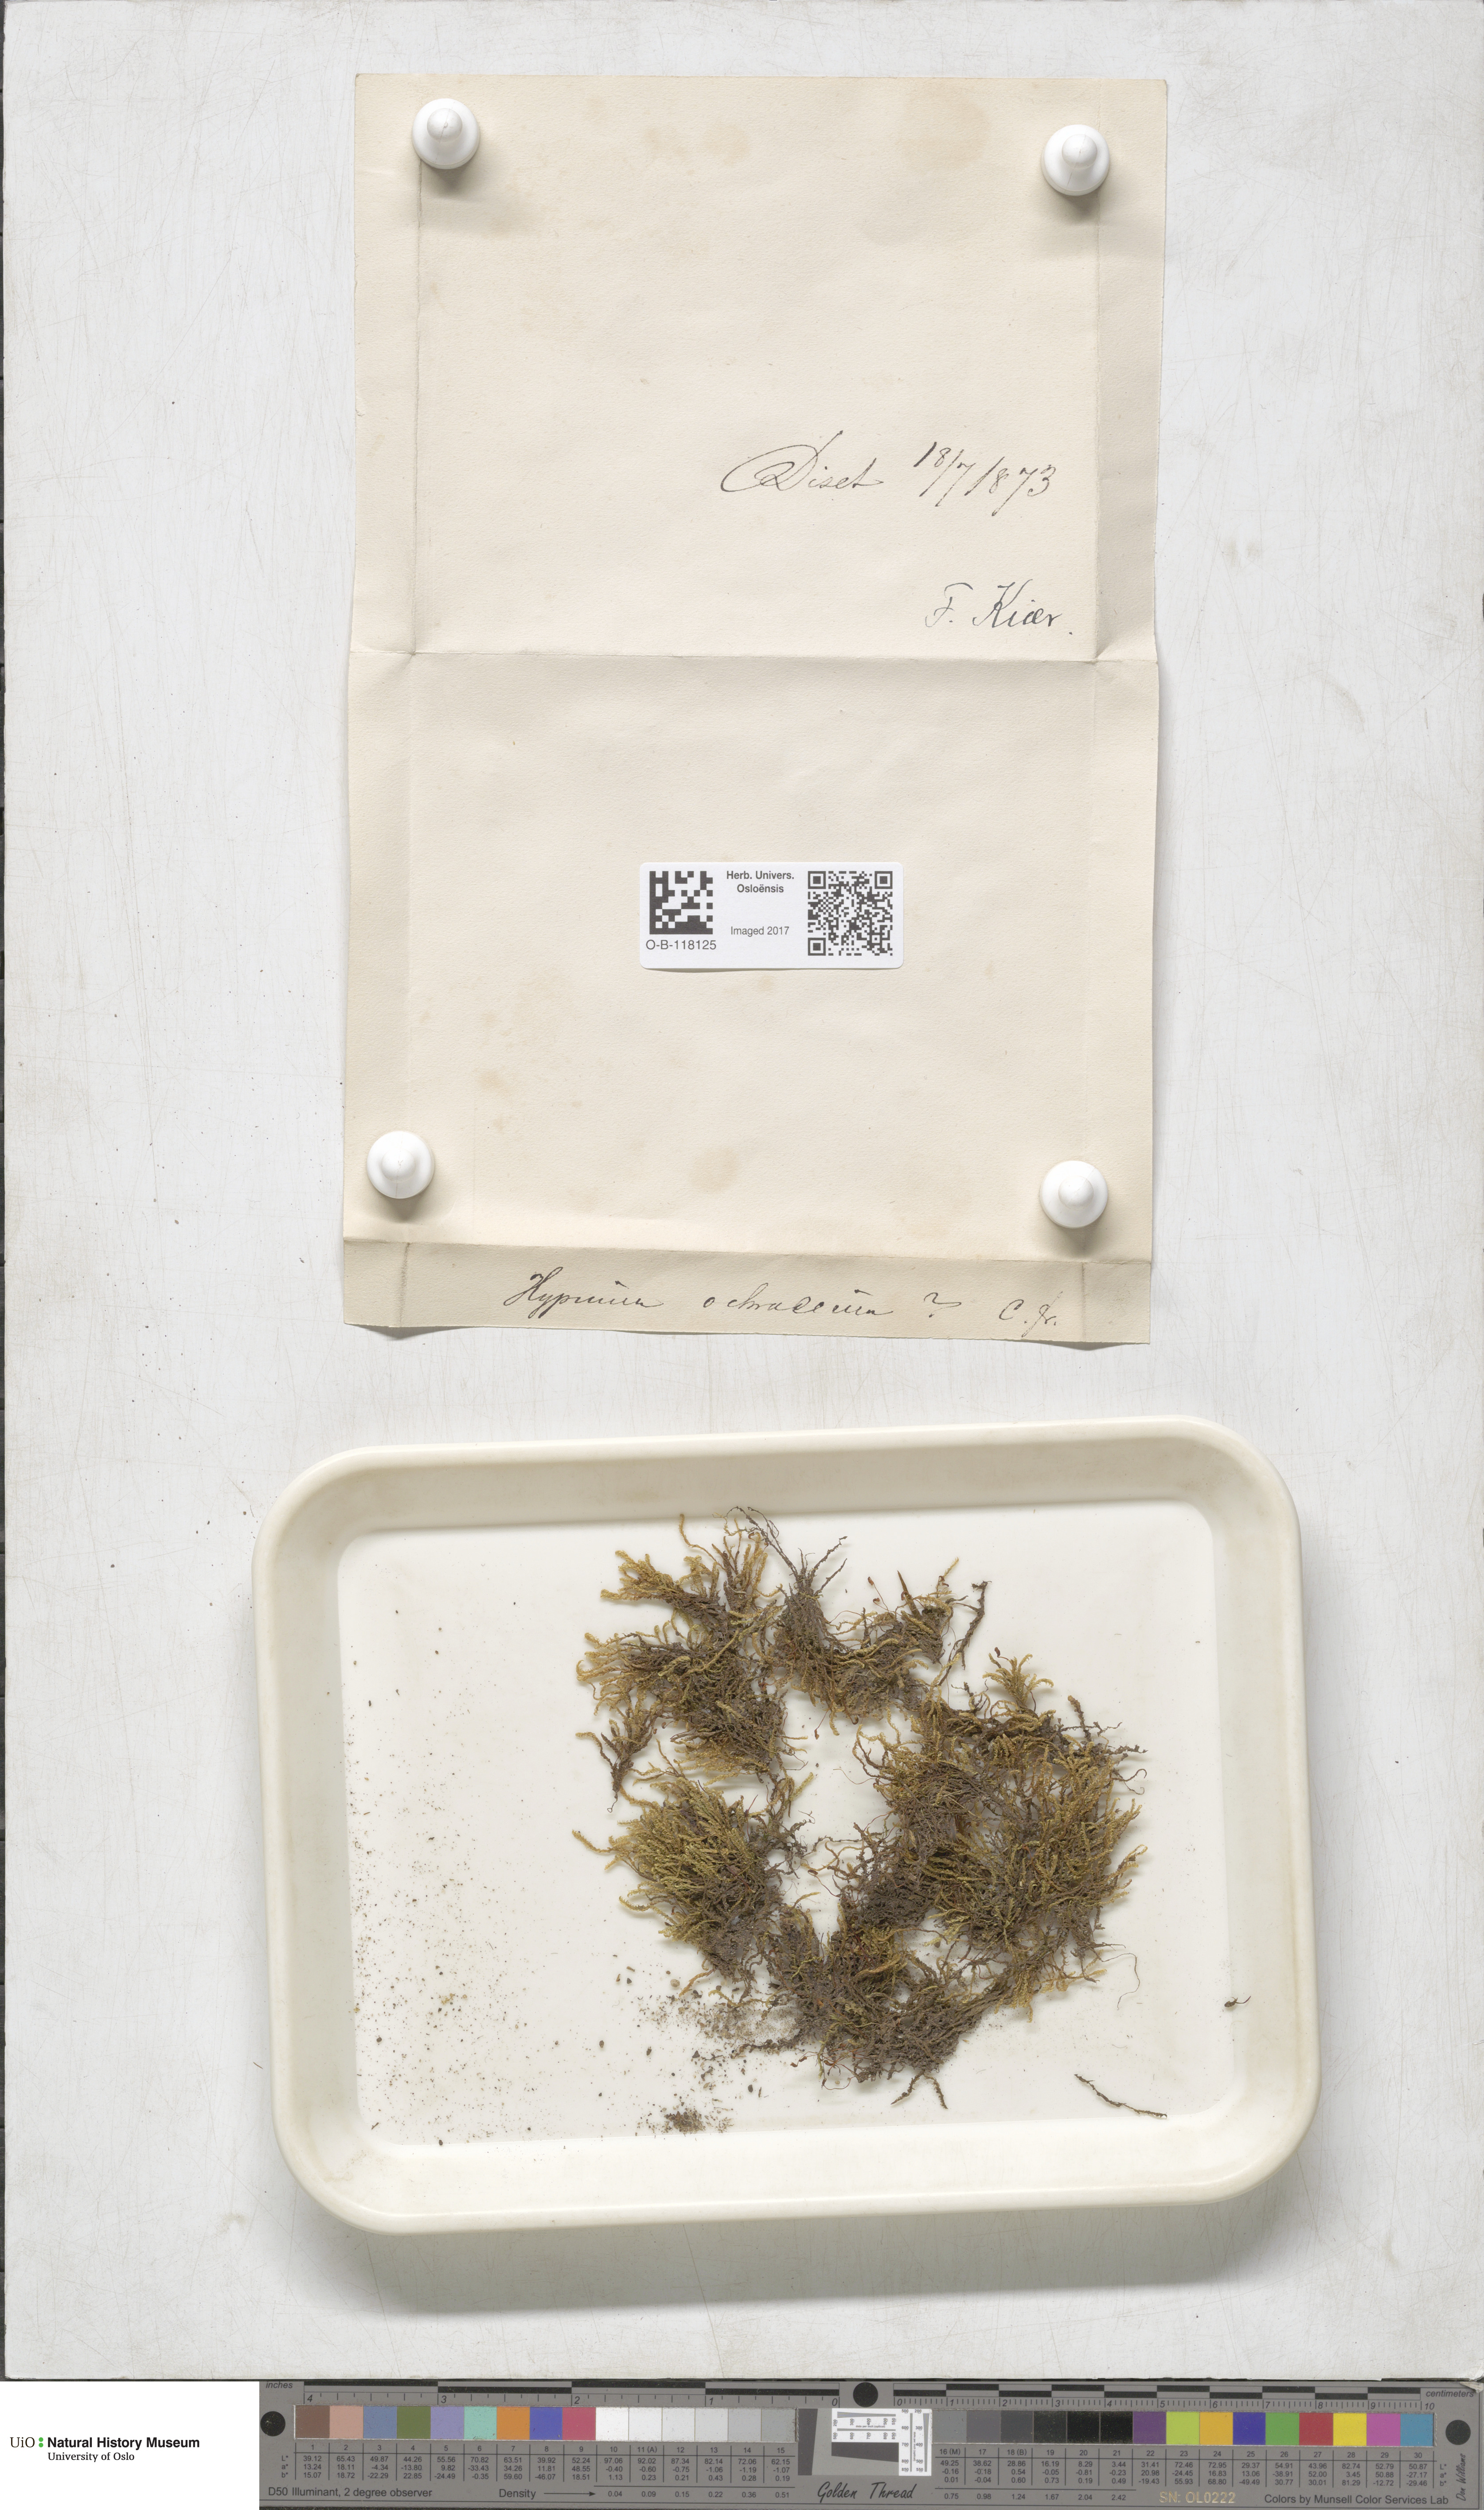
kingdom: Plantae
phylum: Bryophyta
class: Bryopsida
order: Hypnales
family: Scorpidiaceae
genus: Hygrohypnella
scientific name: Hygrohypnella ochracea
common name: Hygrohypnum moss
